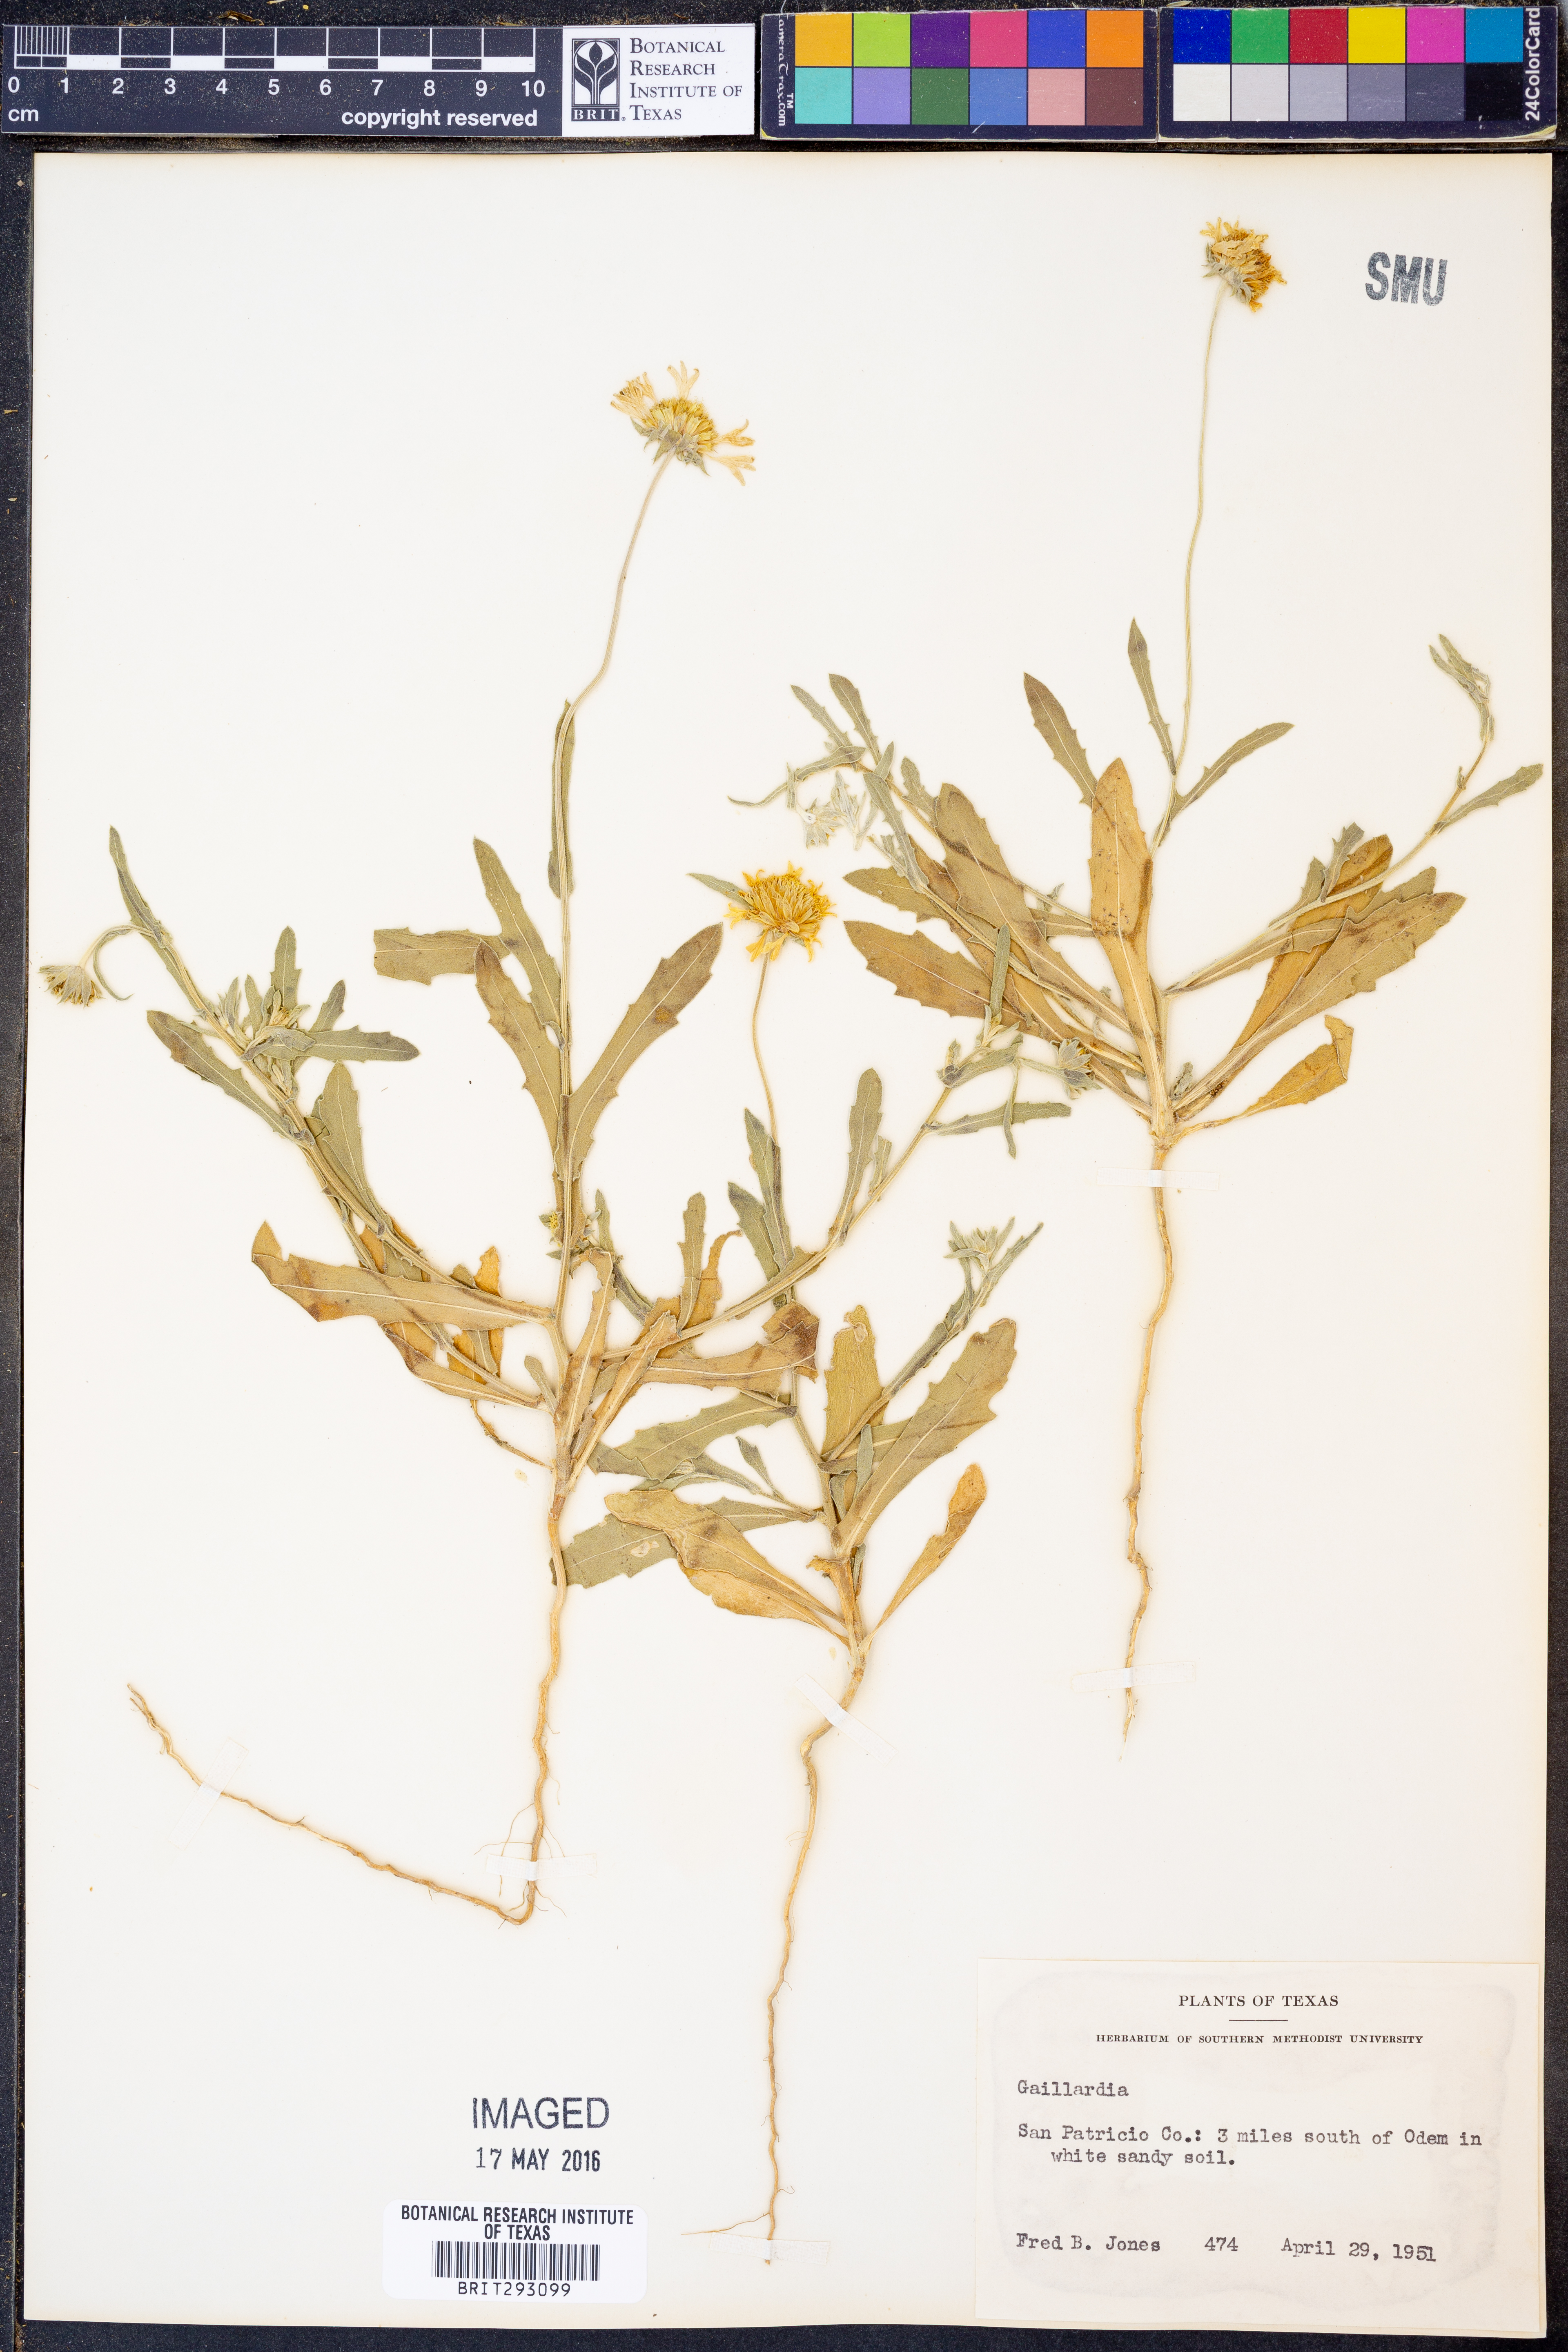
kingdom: Plantae
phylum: Tracheophyta
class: Magnoliopsida
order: Asterales
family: Asteraceae
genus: Gaillardia
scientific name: Gaillardia
